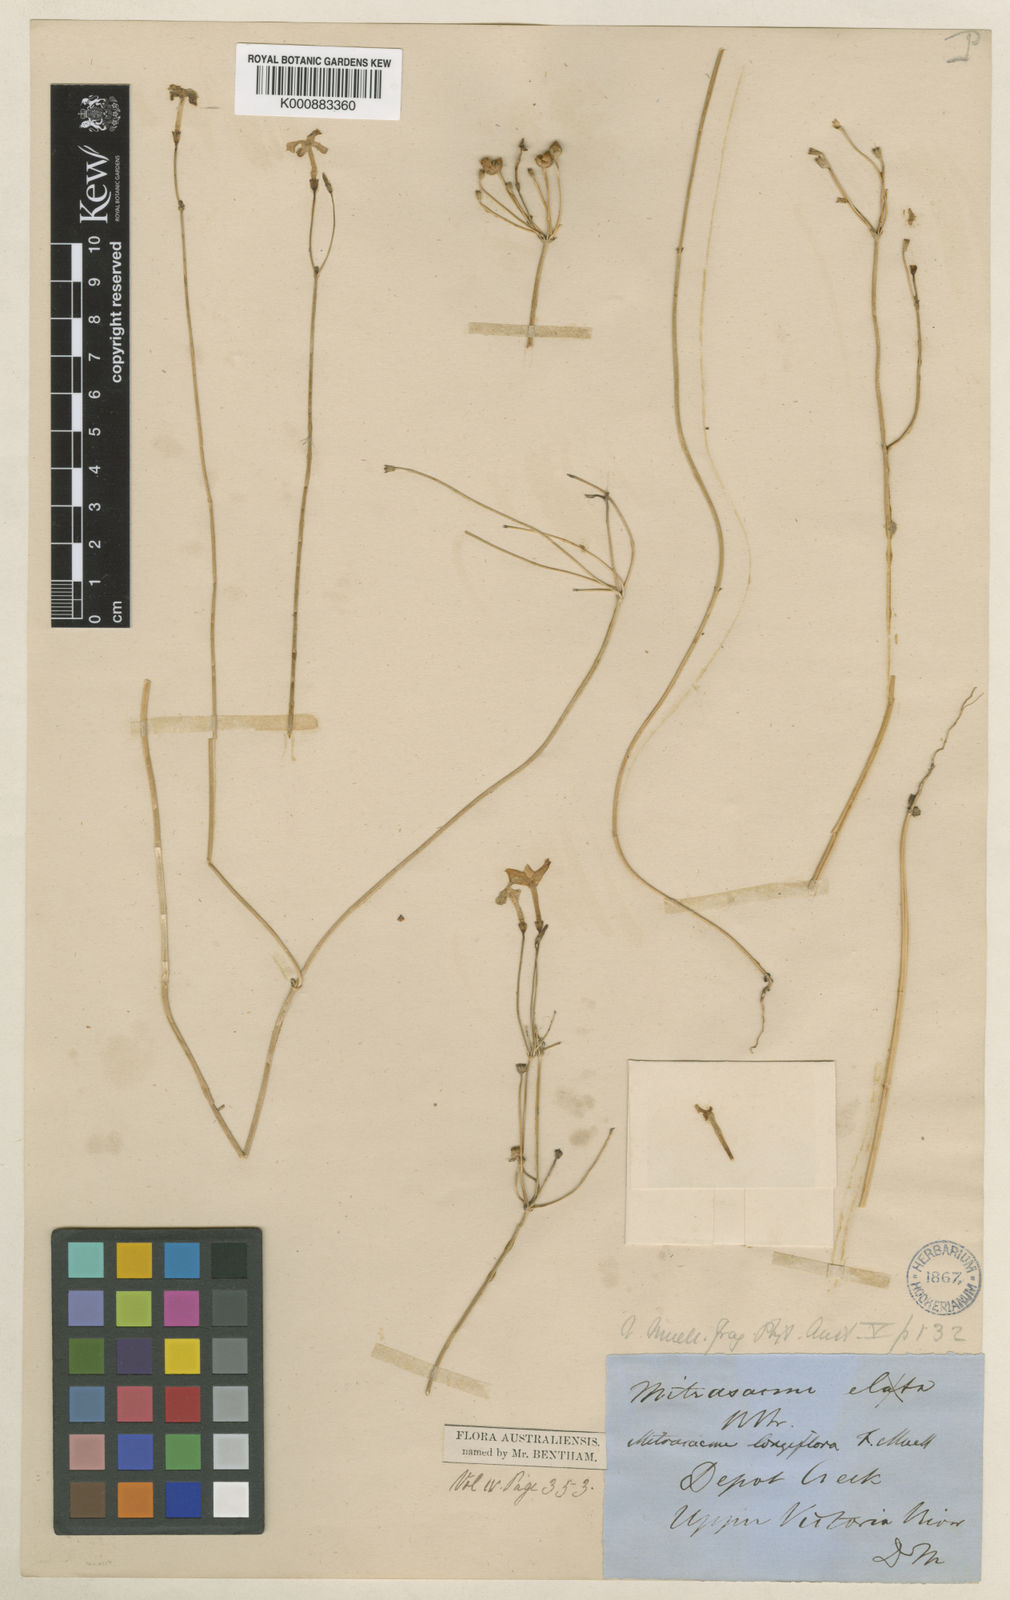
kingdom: Plantae
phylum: Tracheophyta
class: Magnoliopsida
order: Gentianales
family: Loganiaceae
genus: Mitrasacme
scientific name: Mitrasacme nudicaulis
